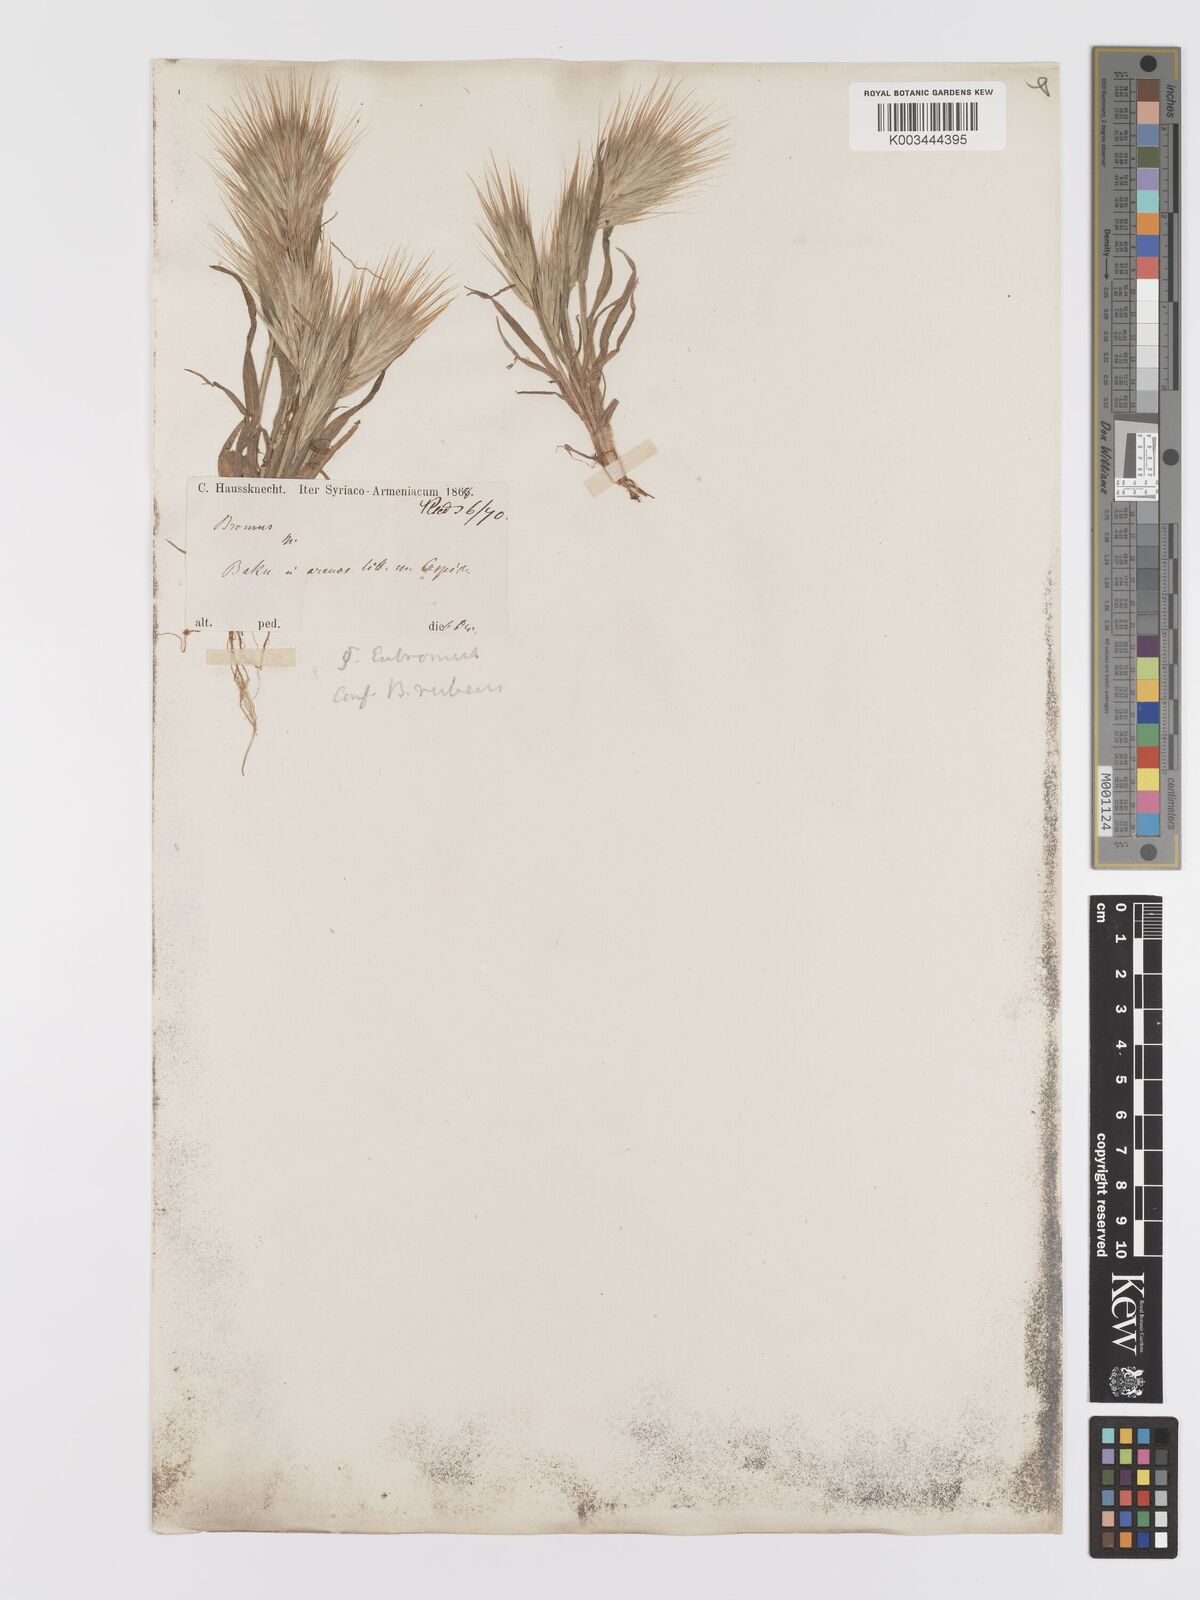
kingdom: Plantae
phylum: Tracheophyta
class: Liliopsida
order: Poales
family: Poaceae
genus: Bromus
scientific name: Bromus rubens
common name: Red brome
